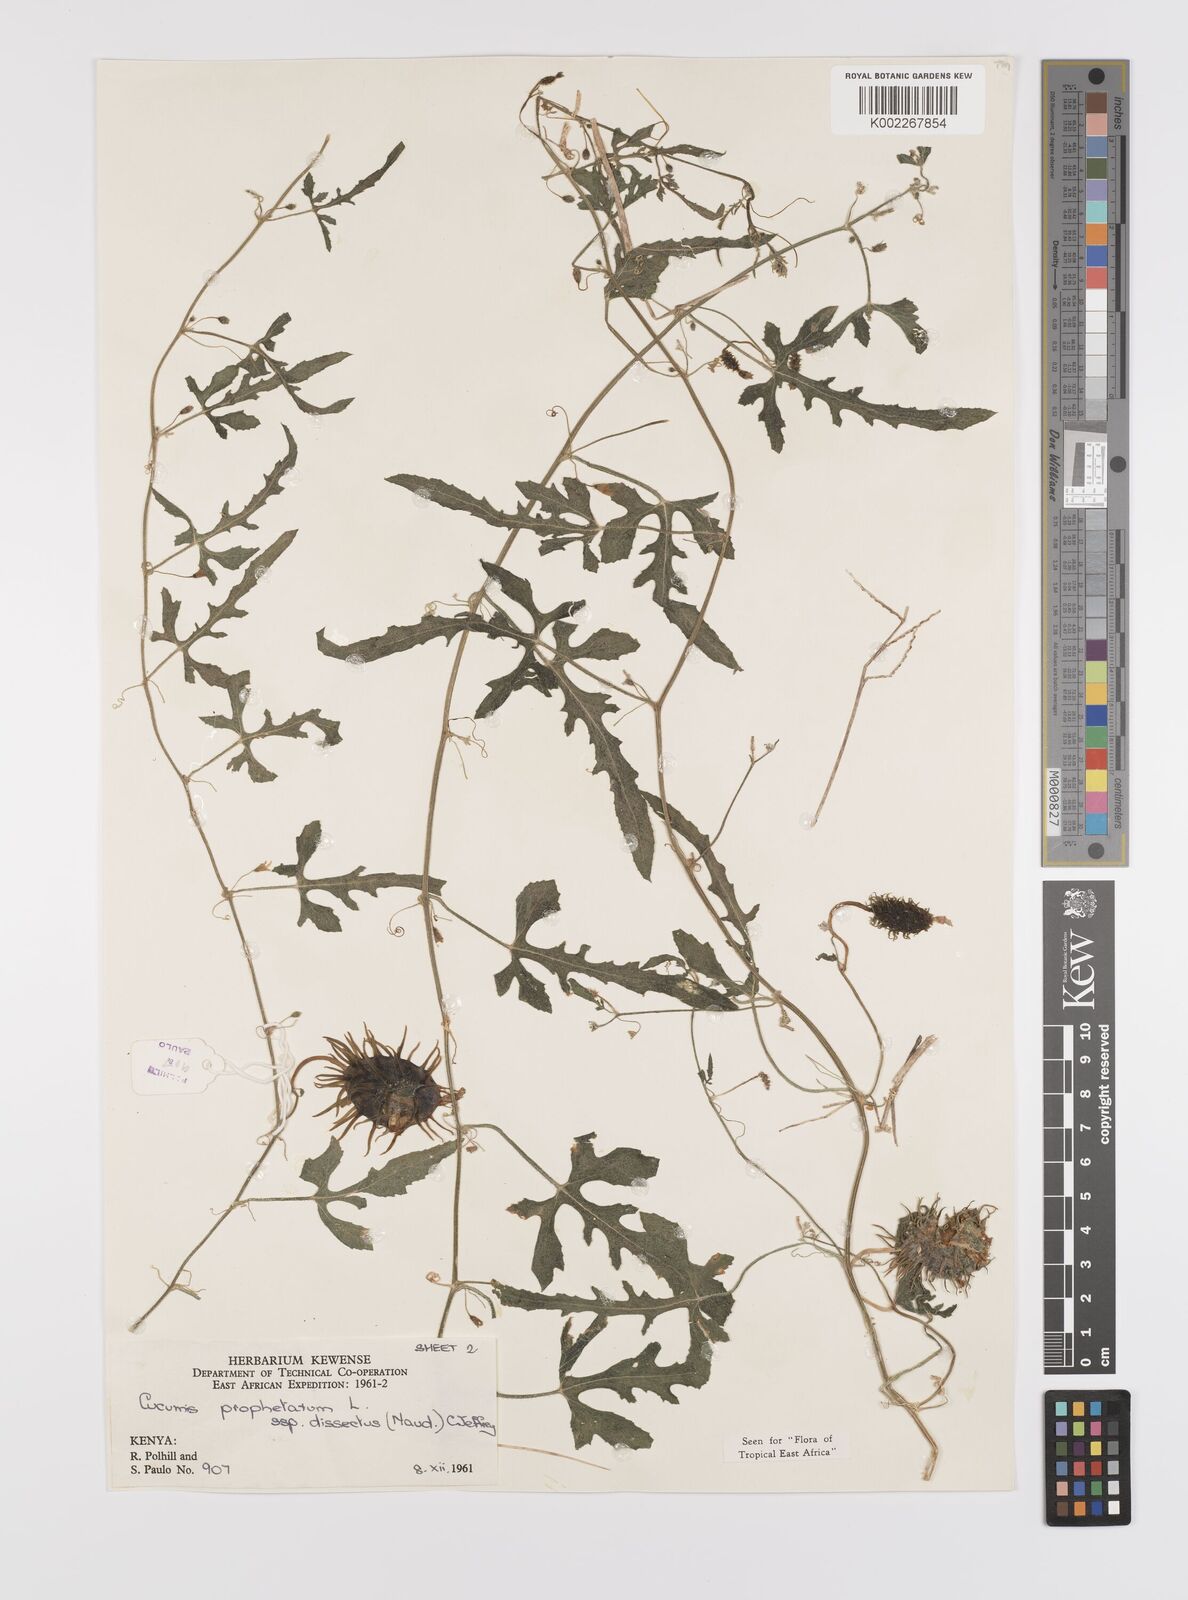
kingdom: Plantae
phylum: Tracheophyta
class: Magnoliopsida
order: Cucurbitales
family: Cucurbitaceae
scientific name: Cucurbitaceae
